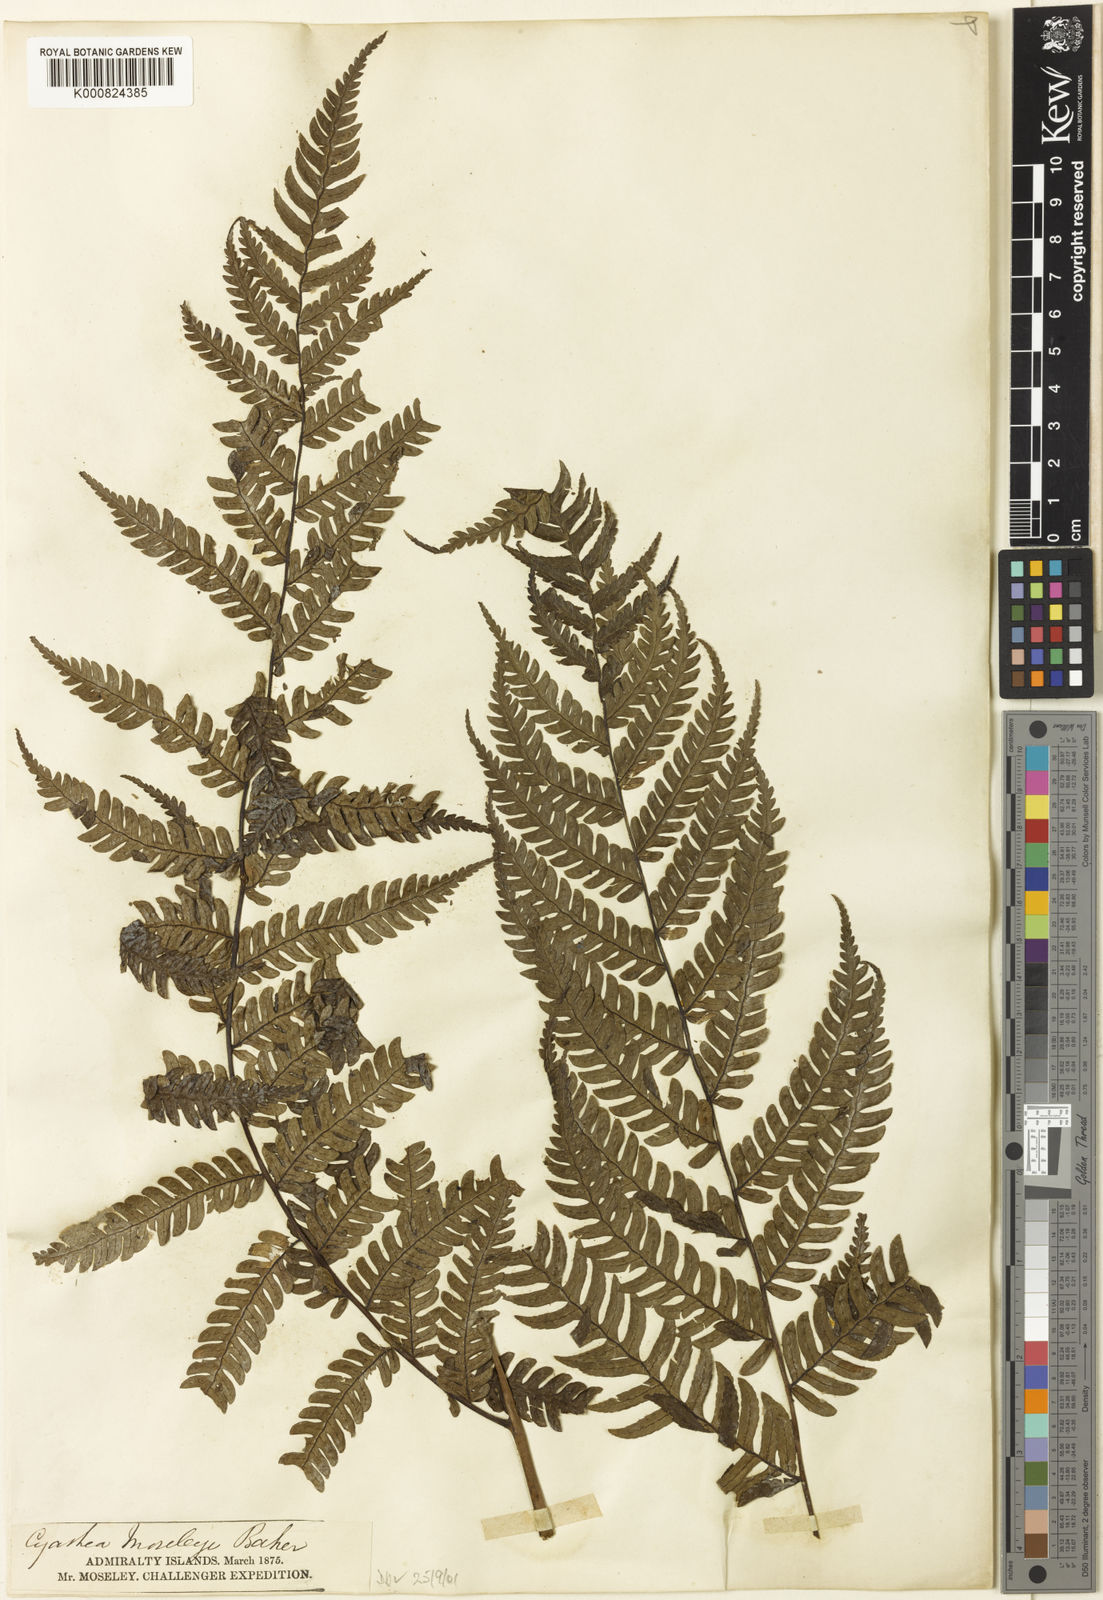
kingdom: Plantae
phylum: Tracheophyta
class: Polypodiopsida
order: Cyatheales
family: Cyatheaceae
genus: Sphaeropteris
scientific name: Sphaeropteris moseleyi
